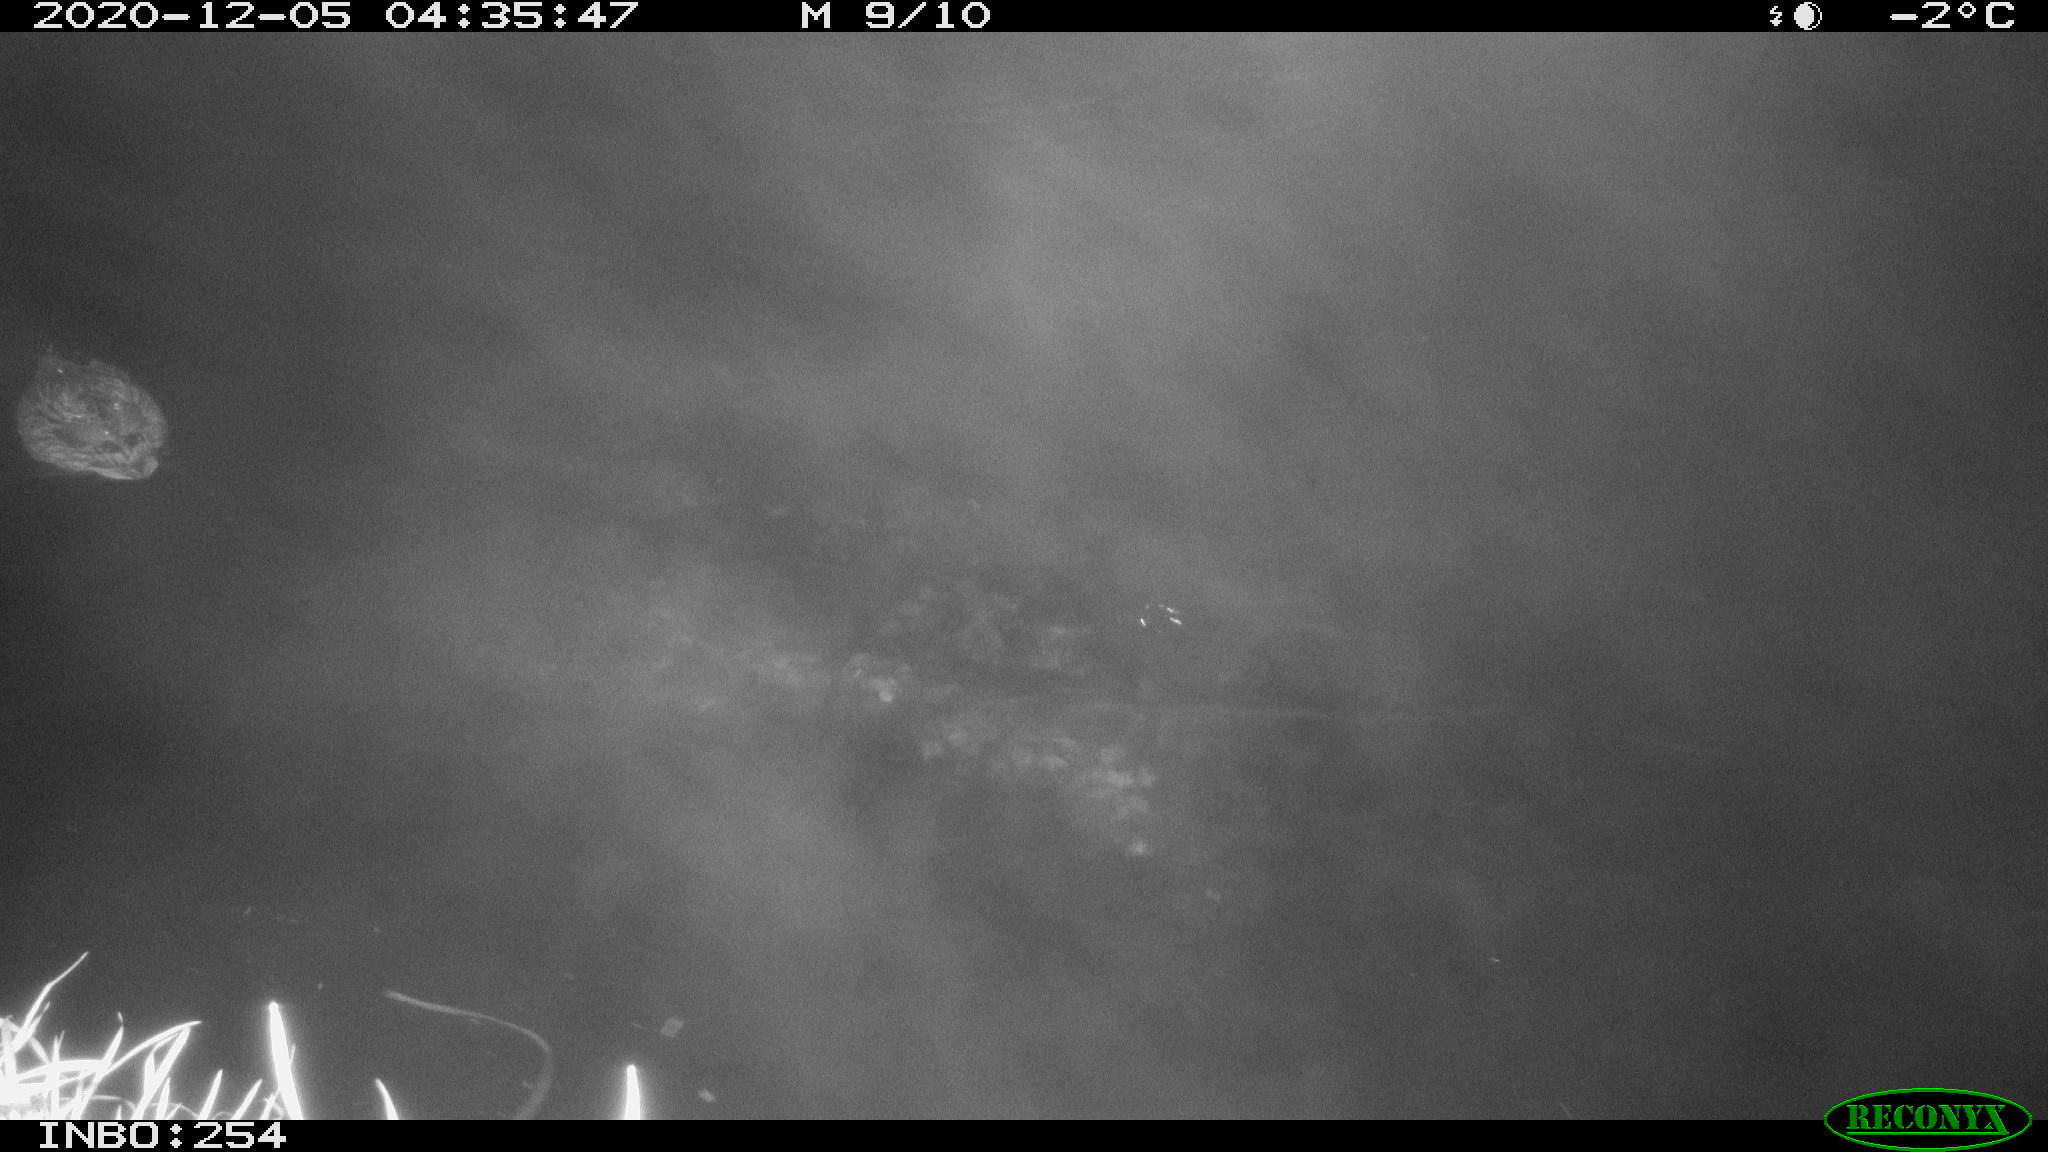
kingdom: Animalia
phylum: Chordata
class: Aves
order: Anseriformes
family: Anatidae
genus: Anas
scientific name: Anas platyrhynchos
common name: Mallard
